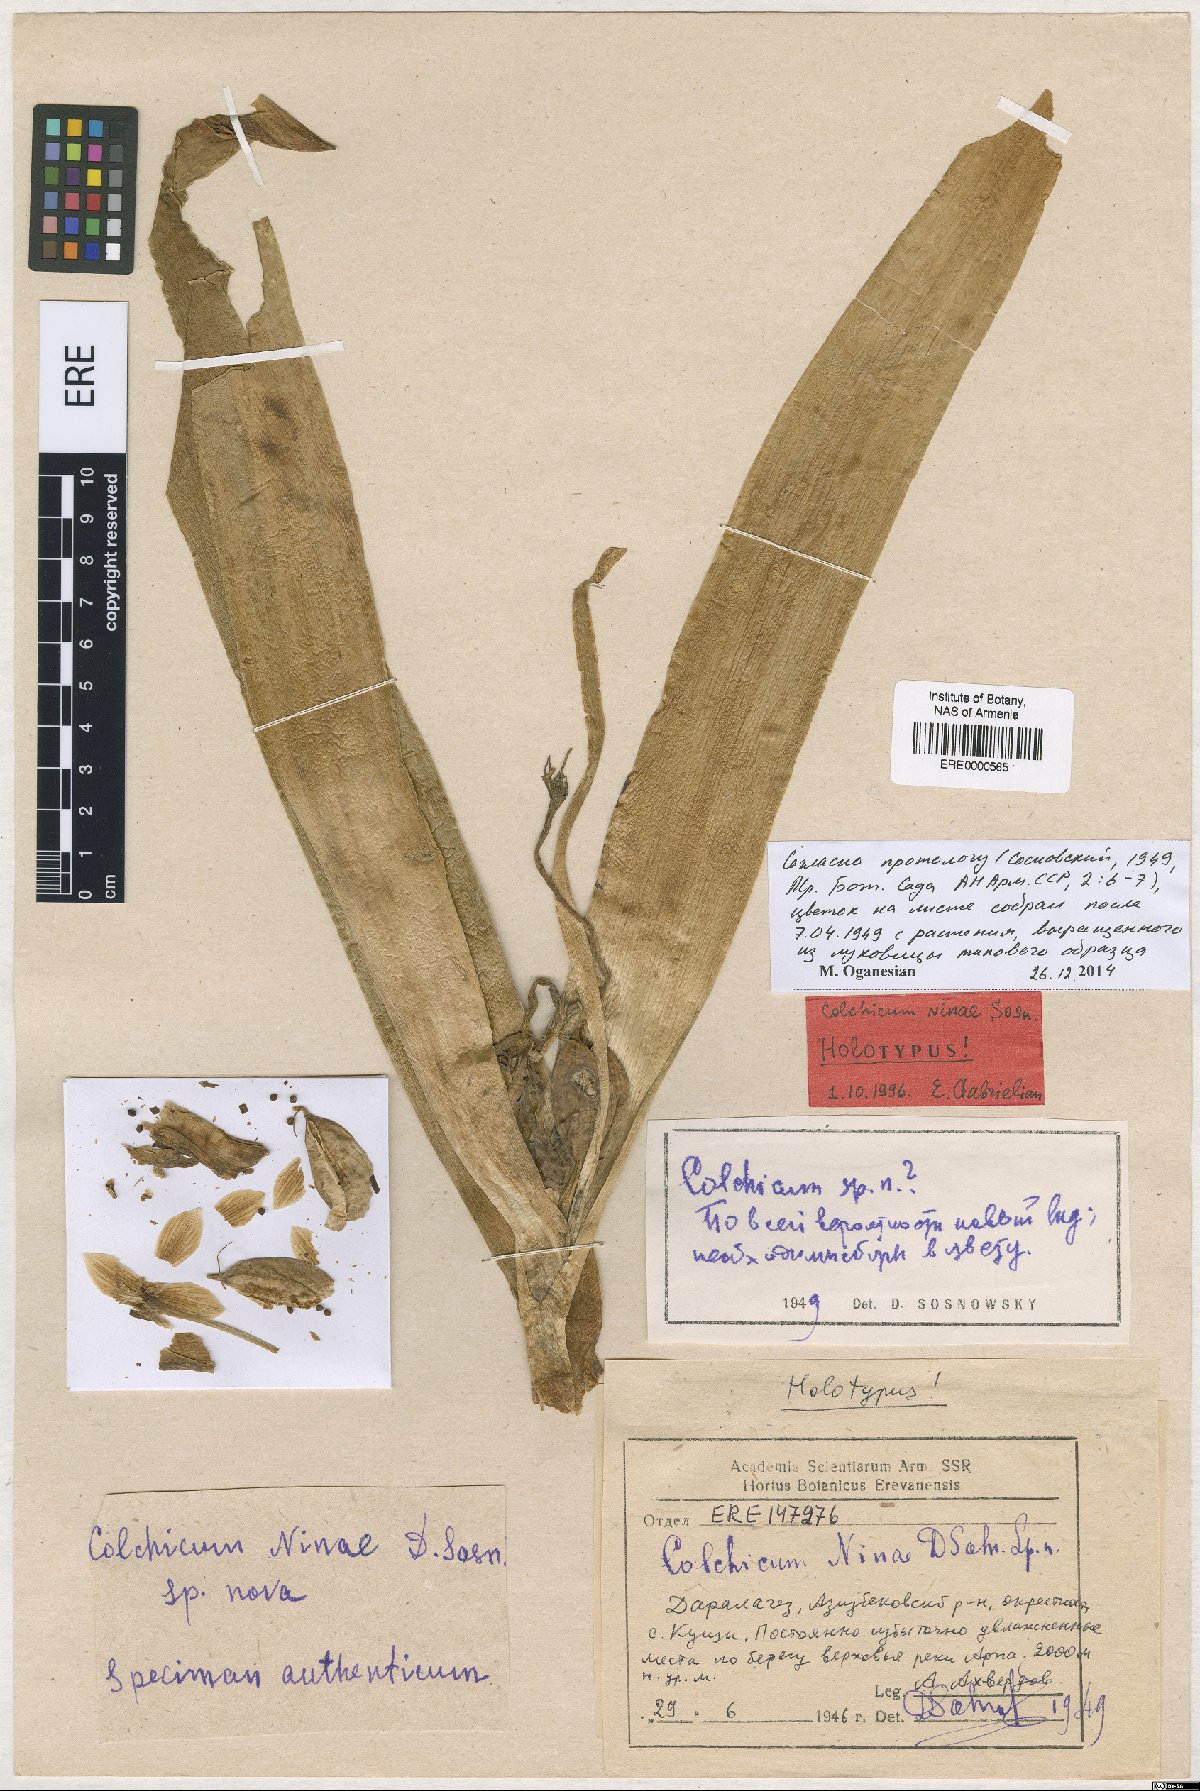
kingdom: Plantae
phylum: Tracheophyta
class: Liliopsida
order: Liliales
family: Colchicaceae
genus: Colchicum
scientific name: Colchicum szovitsii
